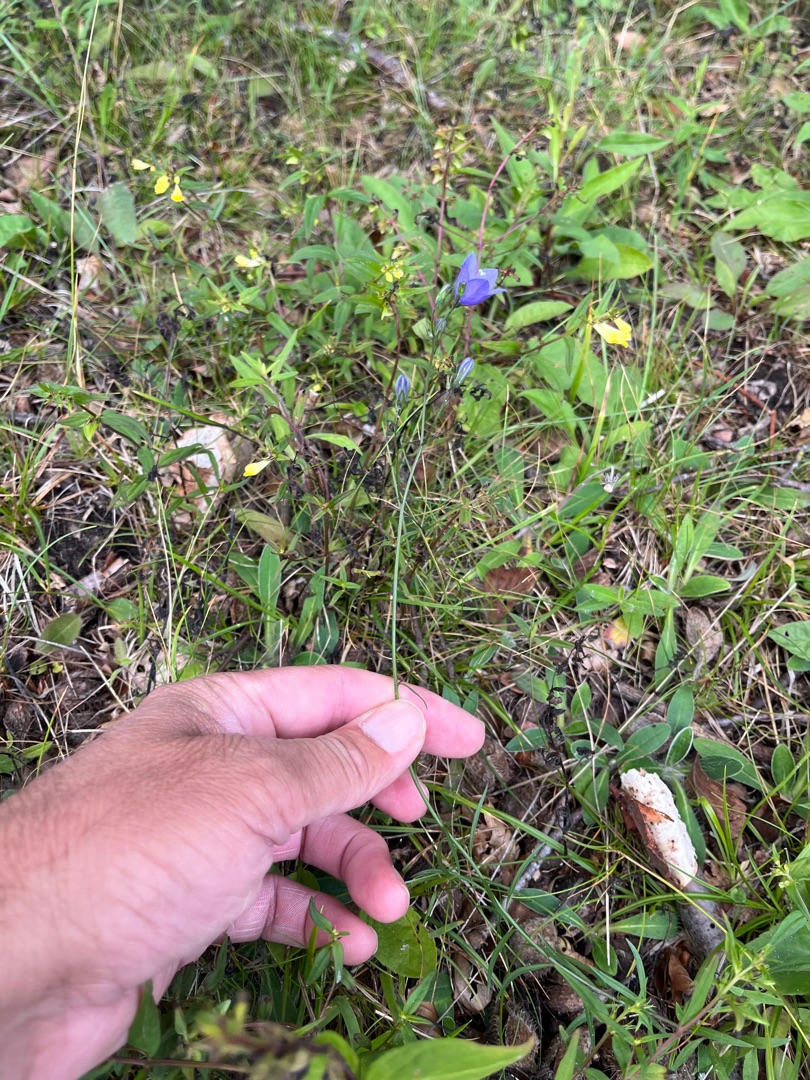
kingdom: Plantae
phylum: Tracheophyta
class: Magnoliopsida
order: Asterales
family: Campanulaceae
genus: Campanula
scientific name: Campanula rotundifolia
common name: Liden klokke
